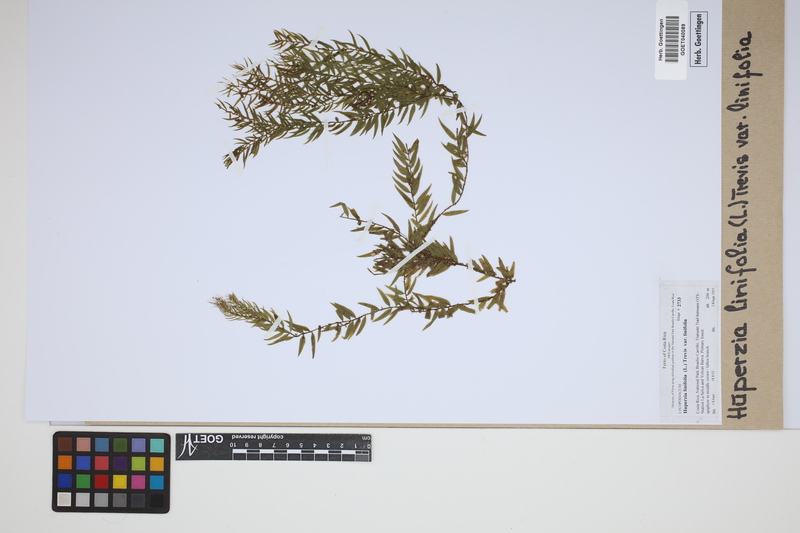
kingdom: Plantae
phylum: Tracheophyta
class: Lycopodiopsida
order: Lycopodiales
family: Lycopodiaceae
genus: Phlegmariurus
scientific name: Phlegmariurus linifolius
